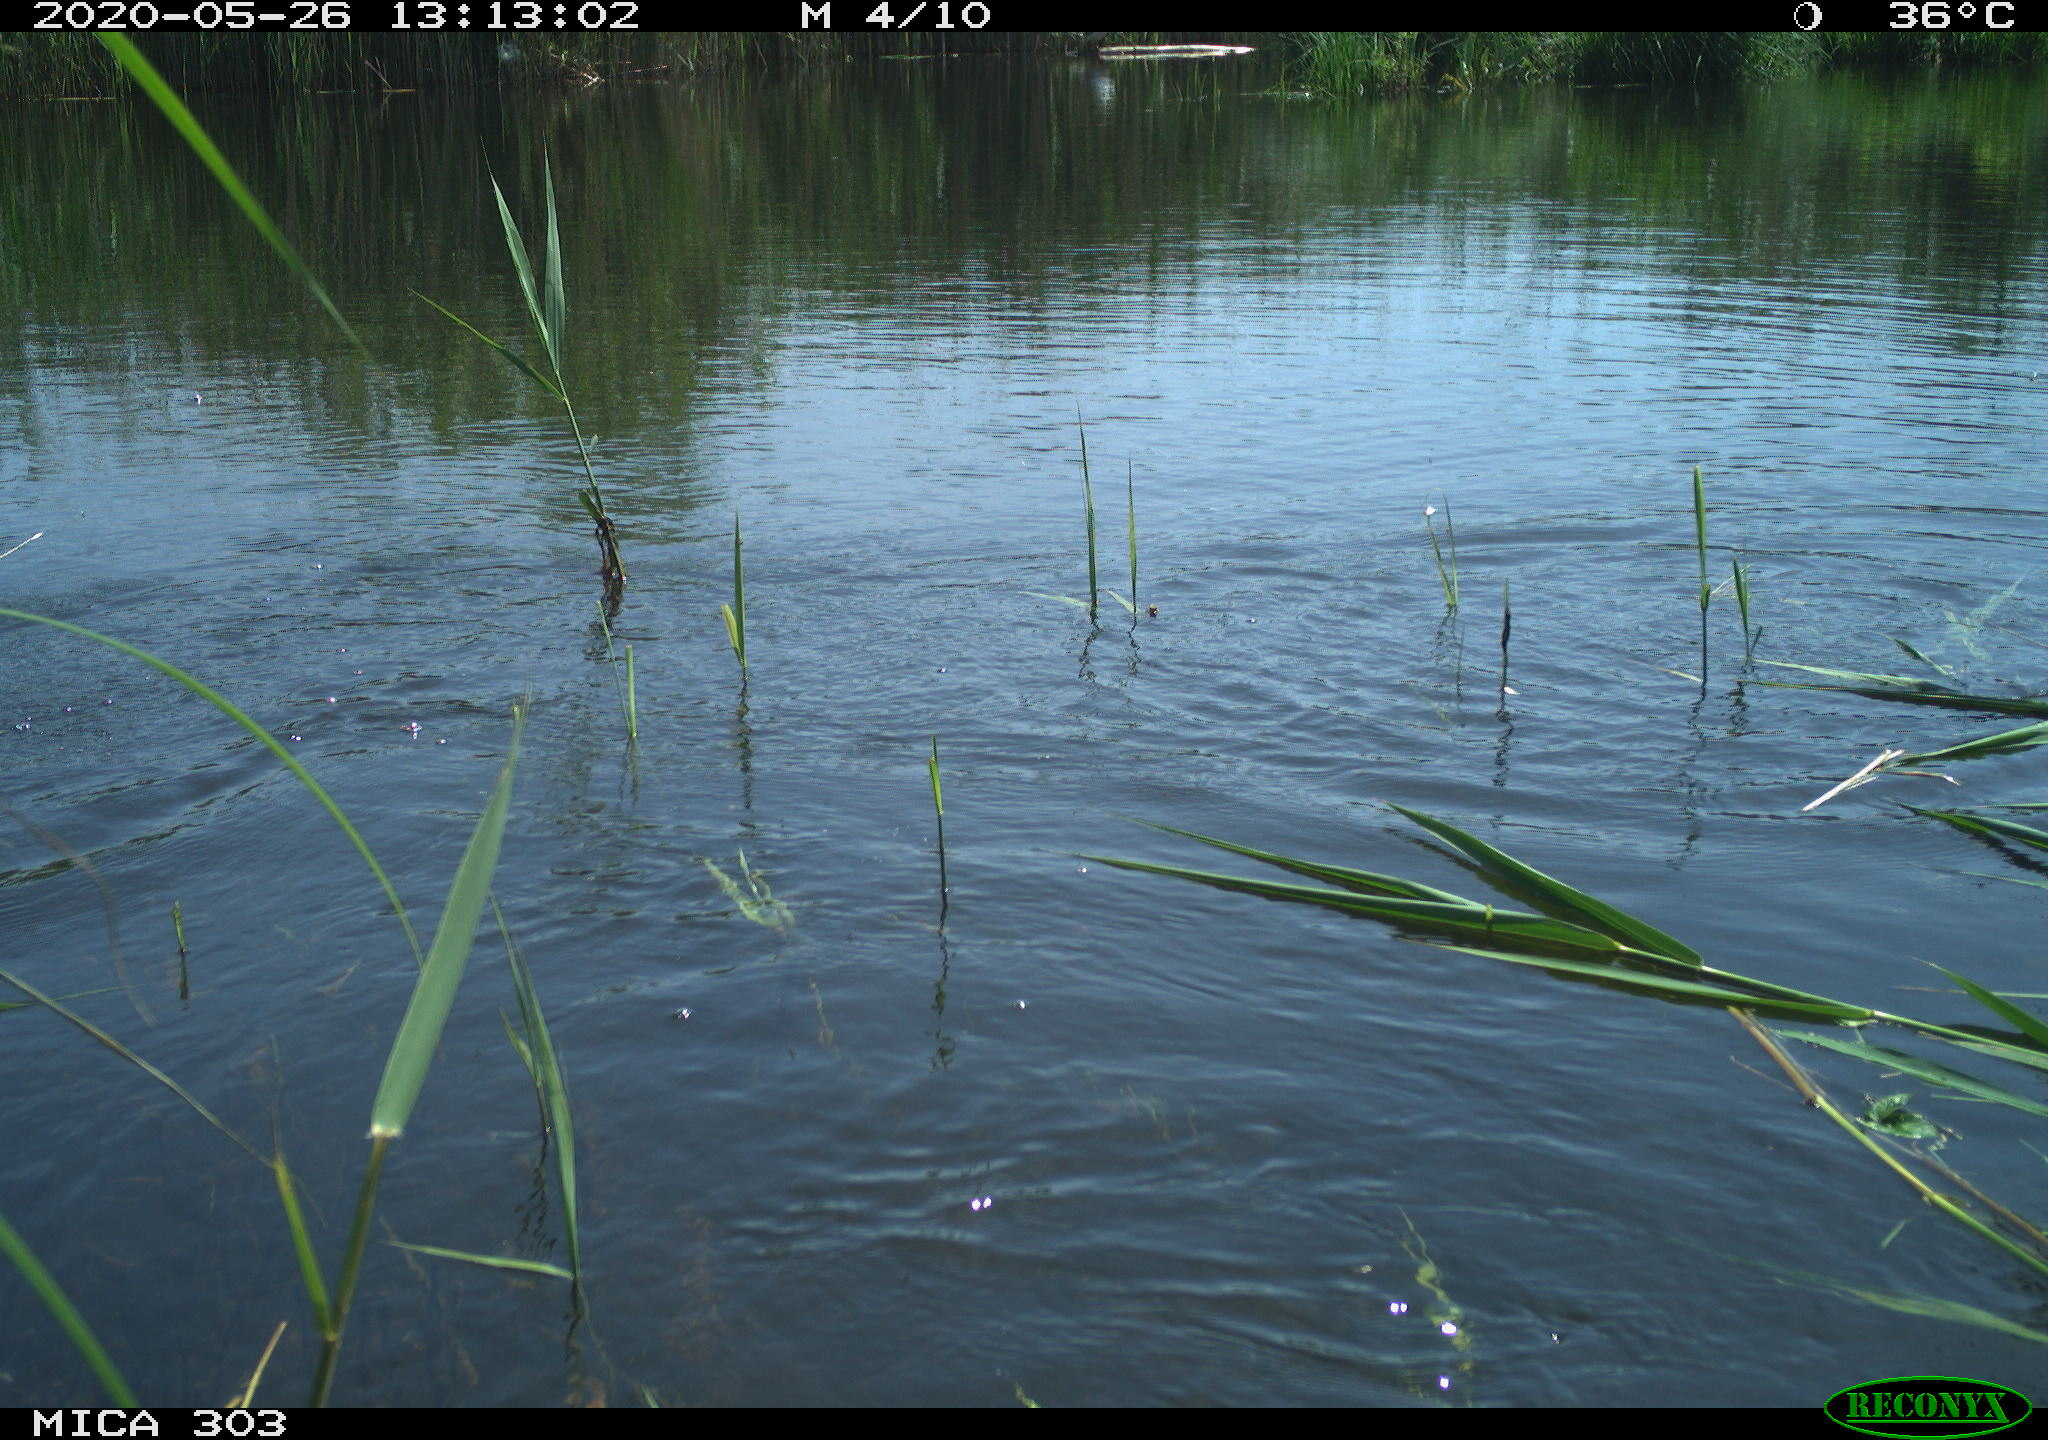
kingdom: Animalia
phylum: Chordata
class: Aves
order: Gruiformes
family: Rallidae
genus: Gallinula
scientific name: Gallinula chloropus
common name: Common moorhen
